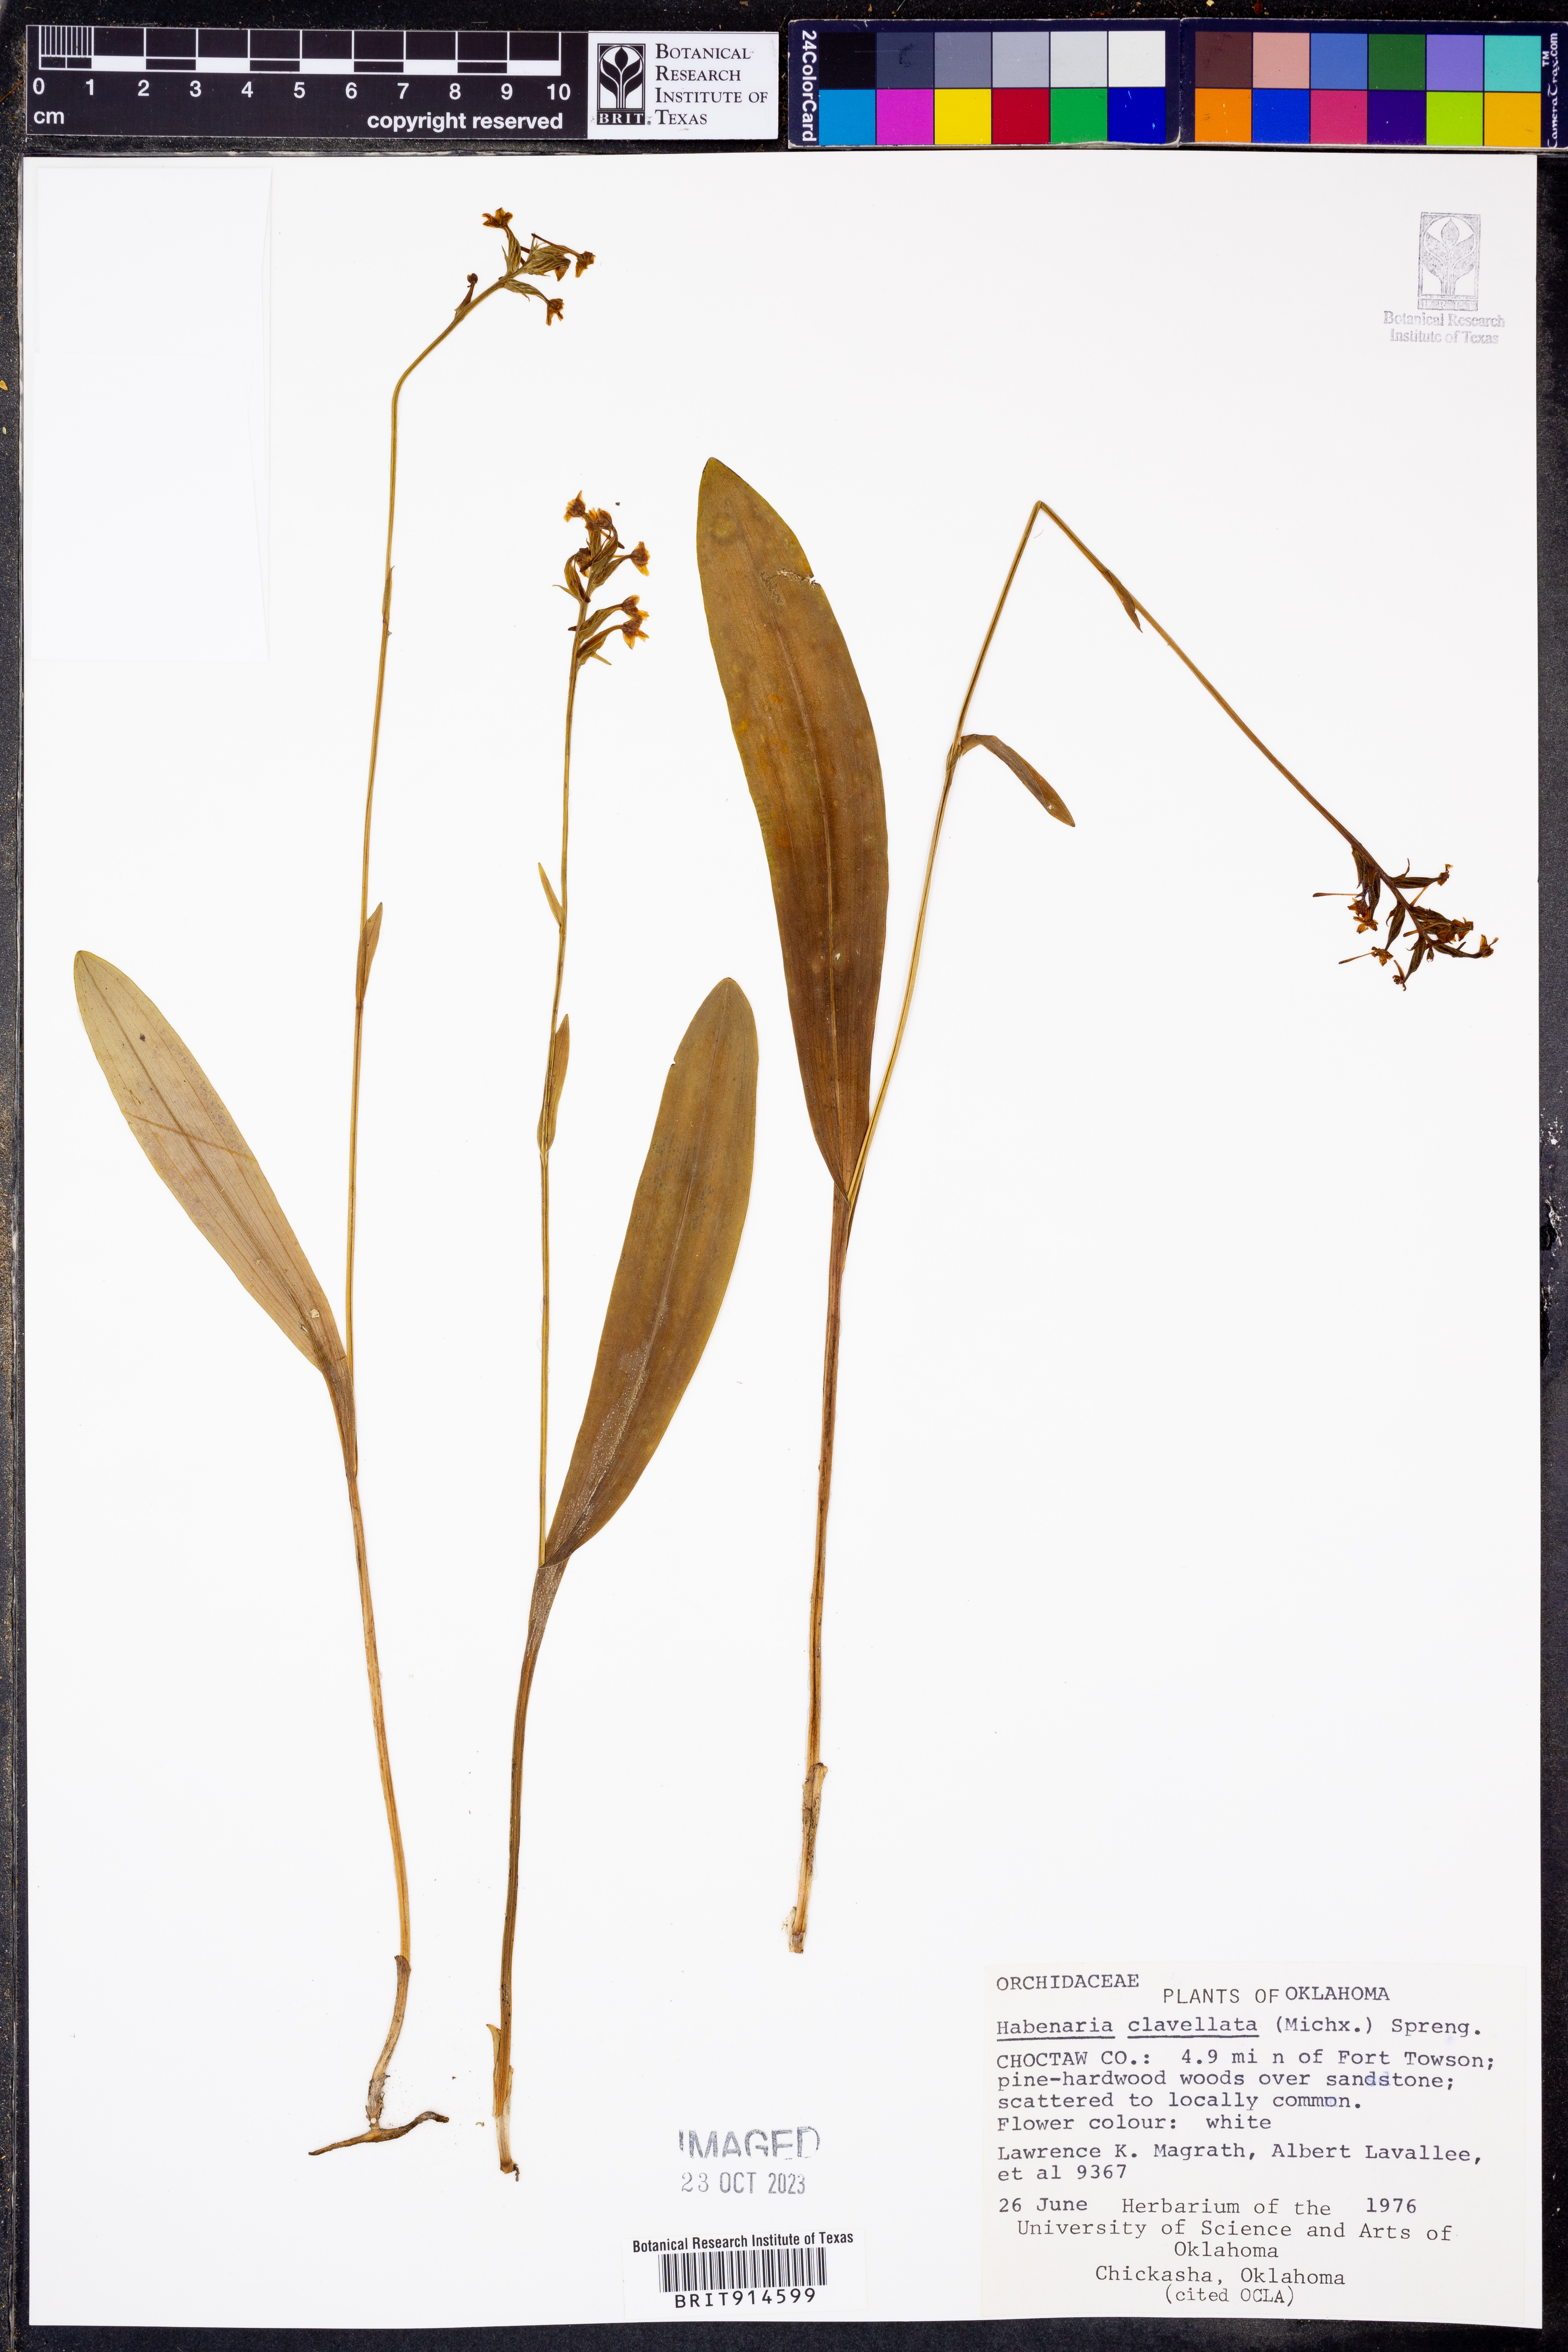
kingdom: Plantae
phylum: Tracheophyta
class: Liliopsida
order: Asparagales
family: Orchidaceae
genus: Platanthera
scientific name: Platanthera clavellata
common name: Club-spur orchid
